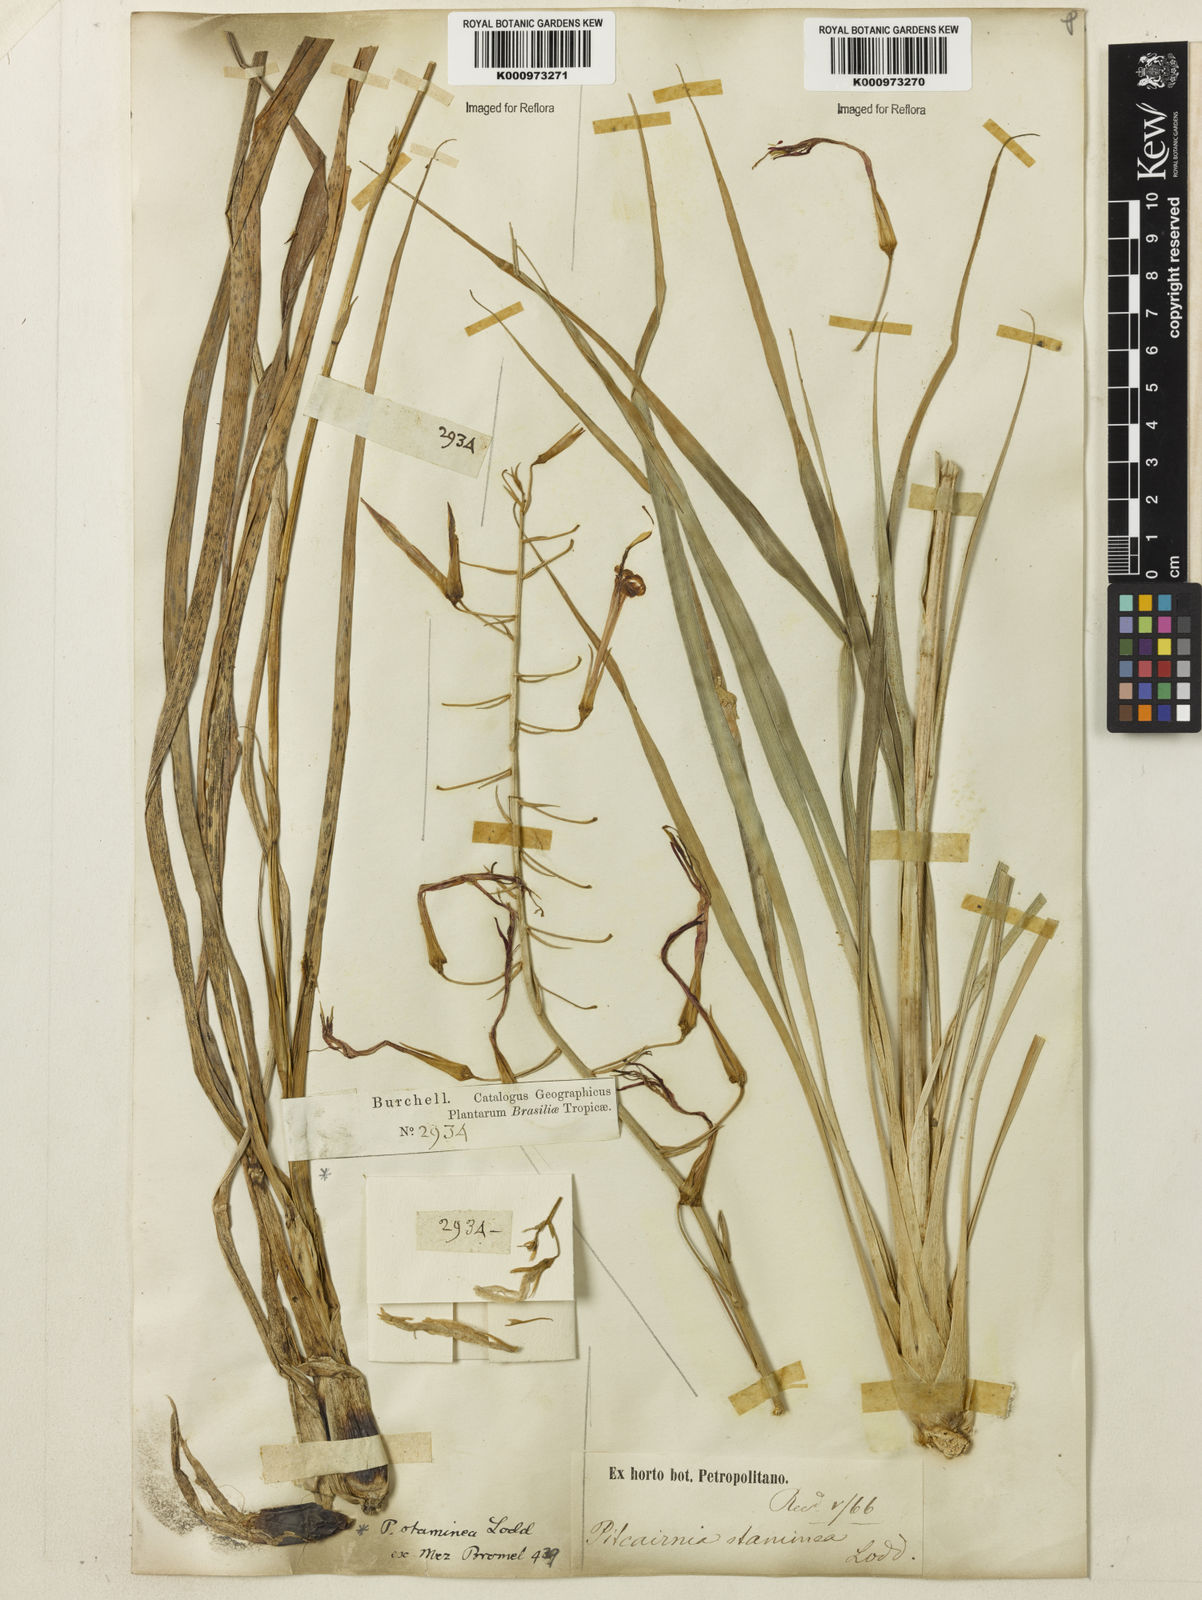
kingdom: Plantae
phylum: Tracheophyta
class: Liliopsida
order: Poales
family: Bromeliaceae
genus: Pitcairnia
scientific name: Pitcairnia staminea
